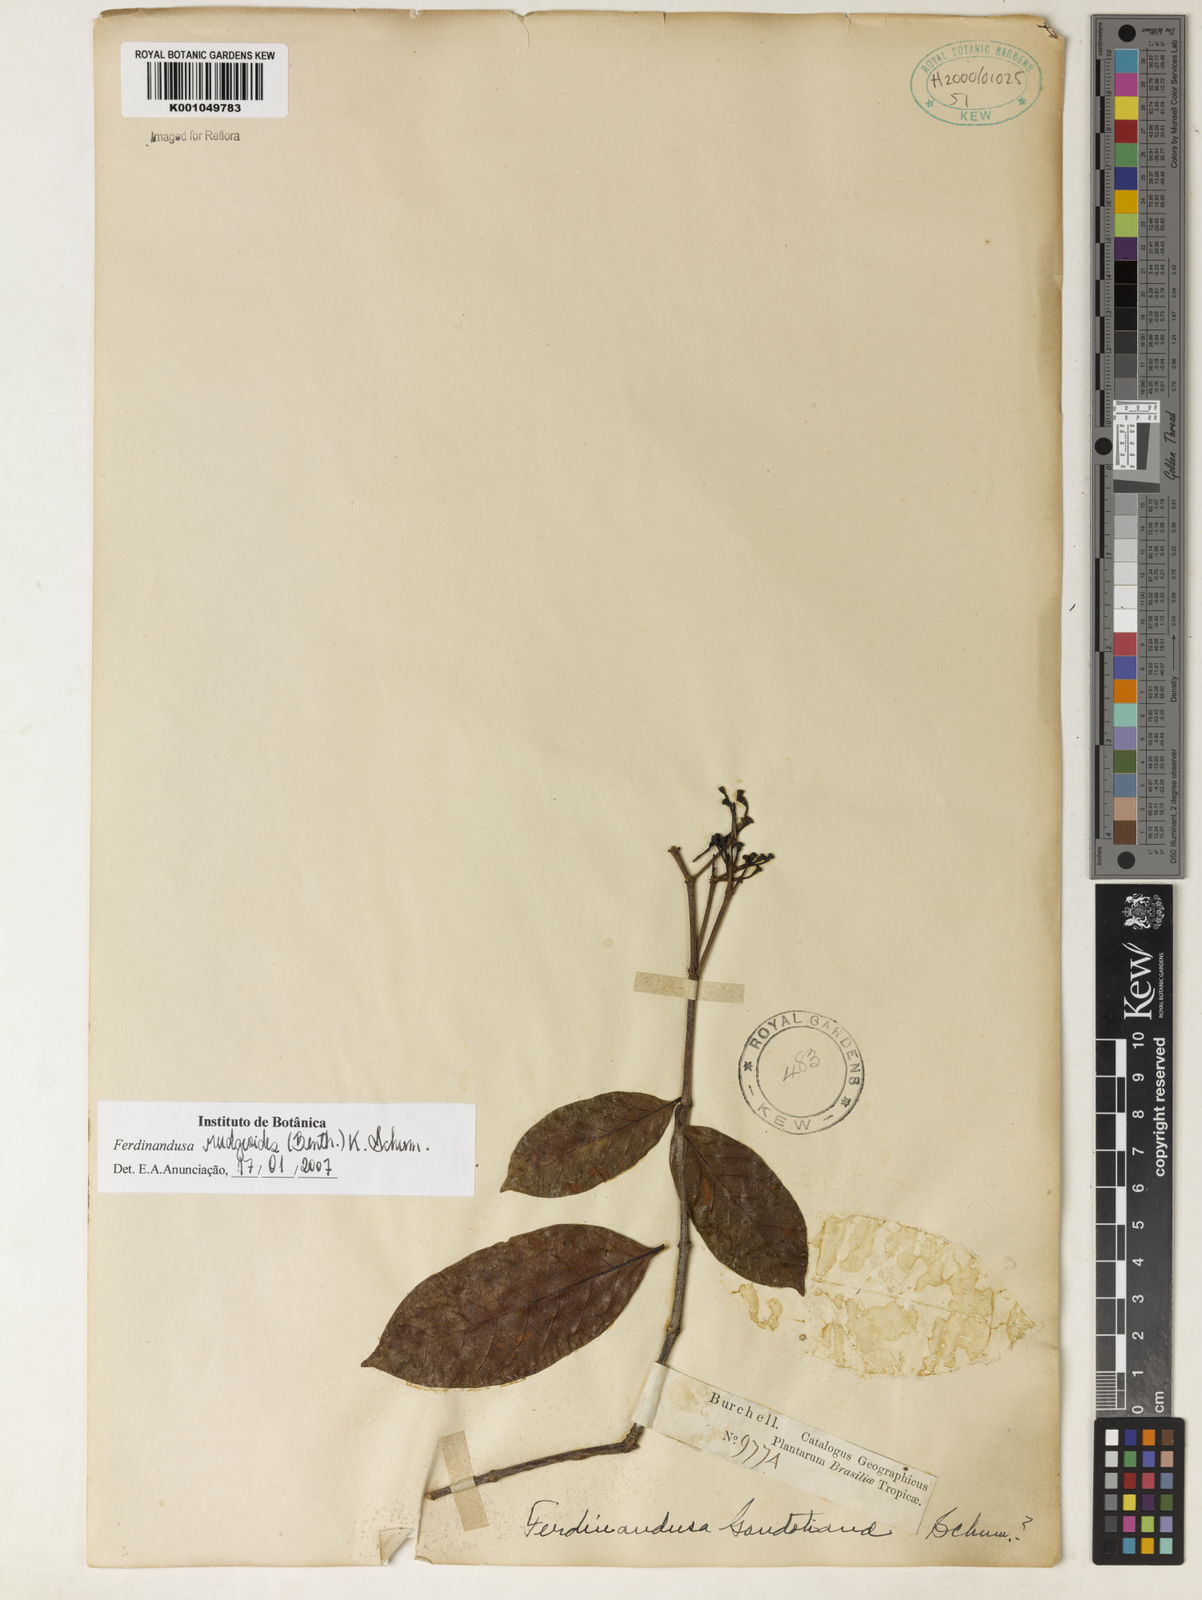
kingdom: Plantae
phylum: Tracheophyta
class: Magnoliopsida
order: Gentianales
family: Rubiaceae
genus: Ferdinandusa
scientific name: Ferdinandusa rudgeoides
